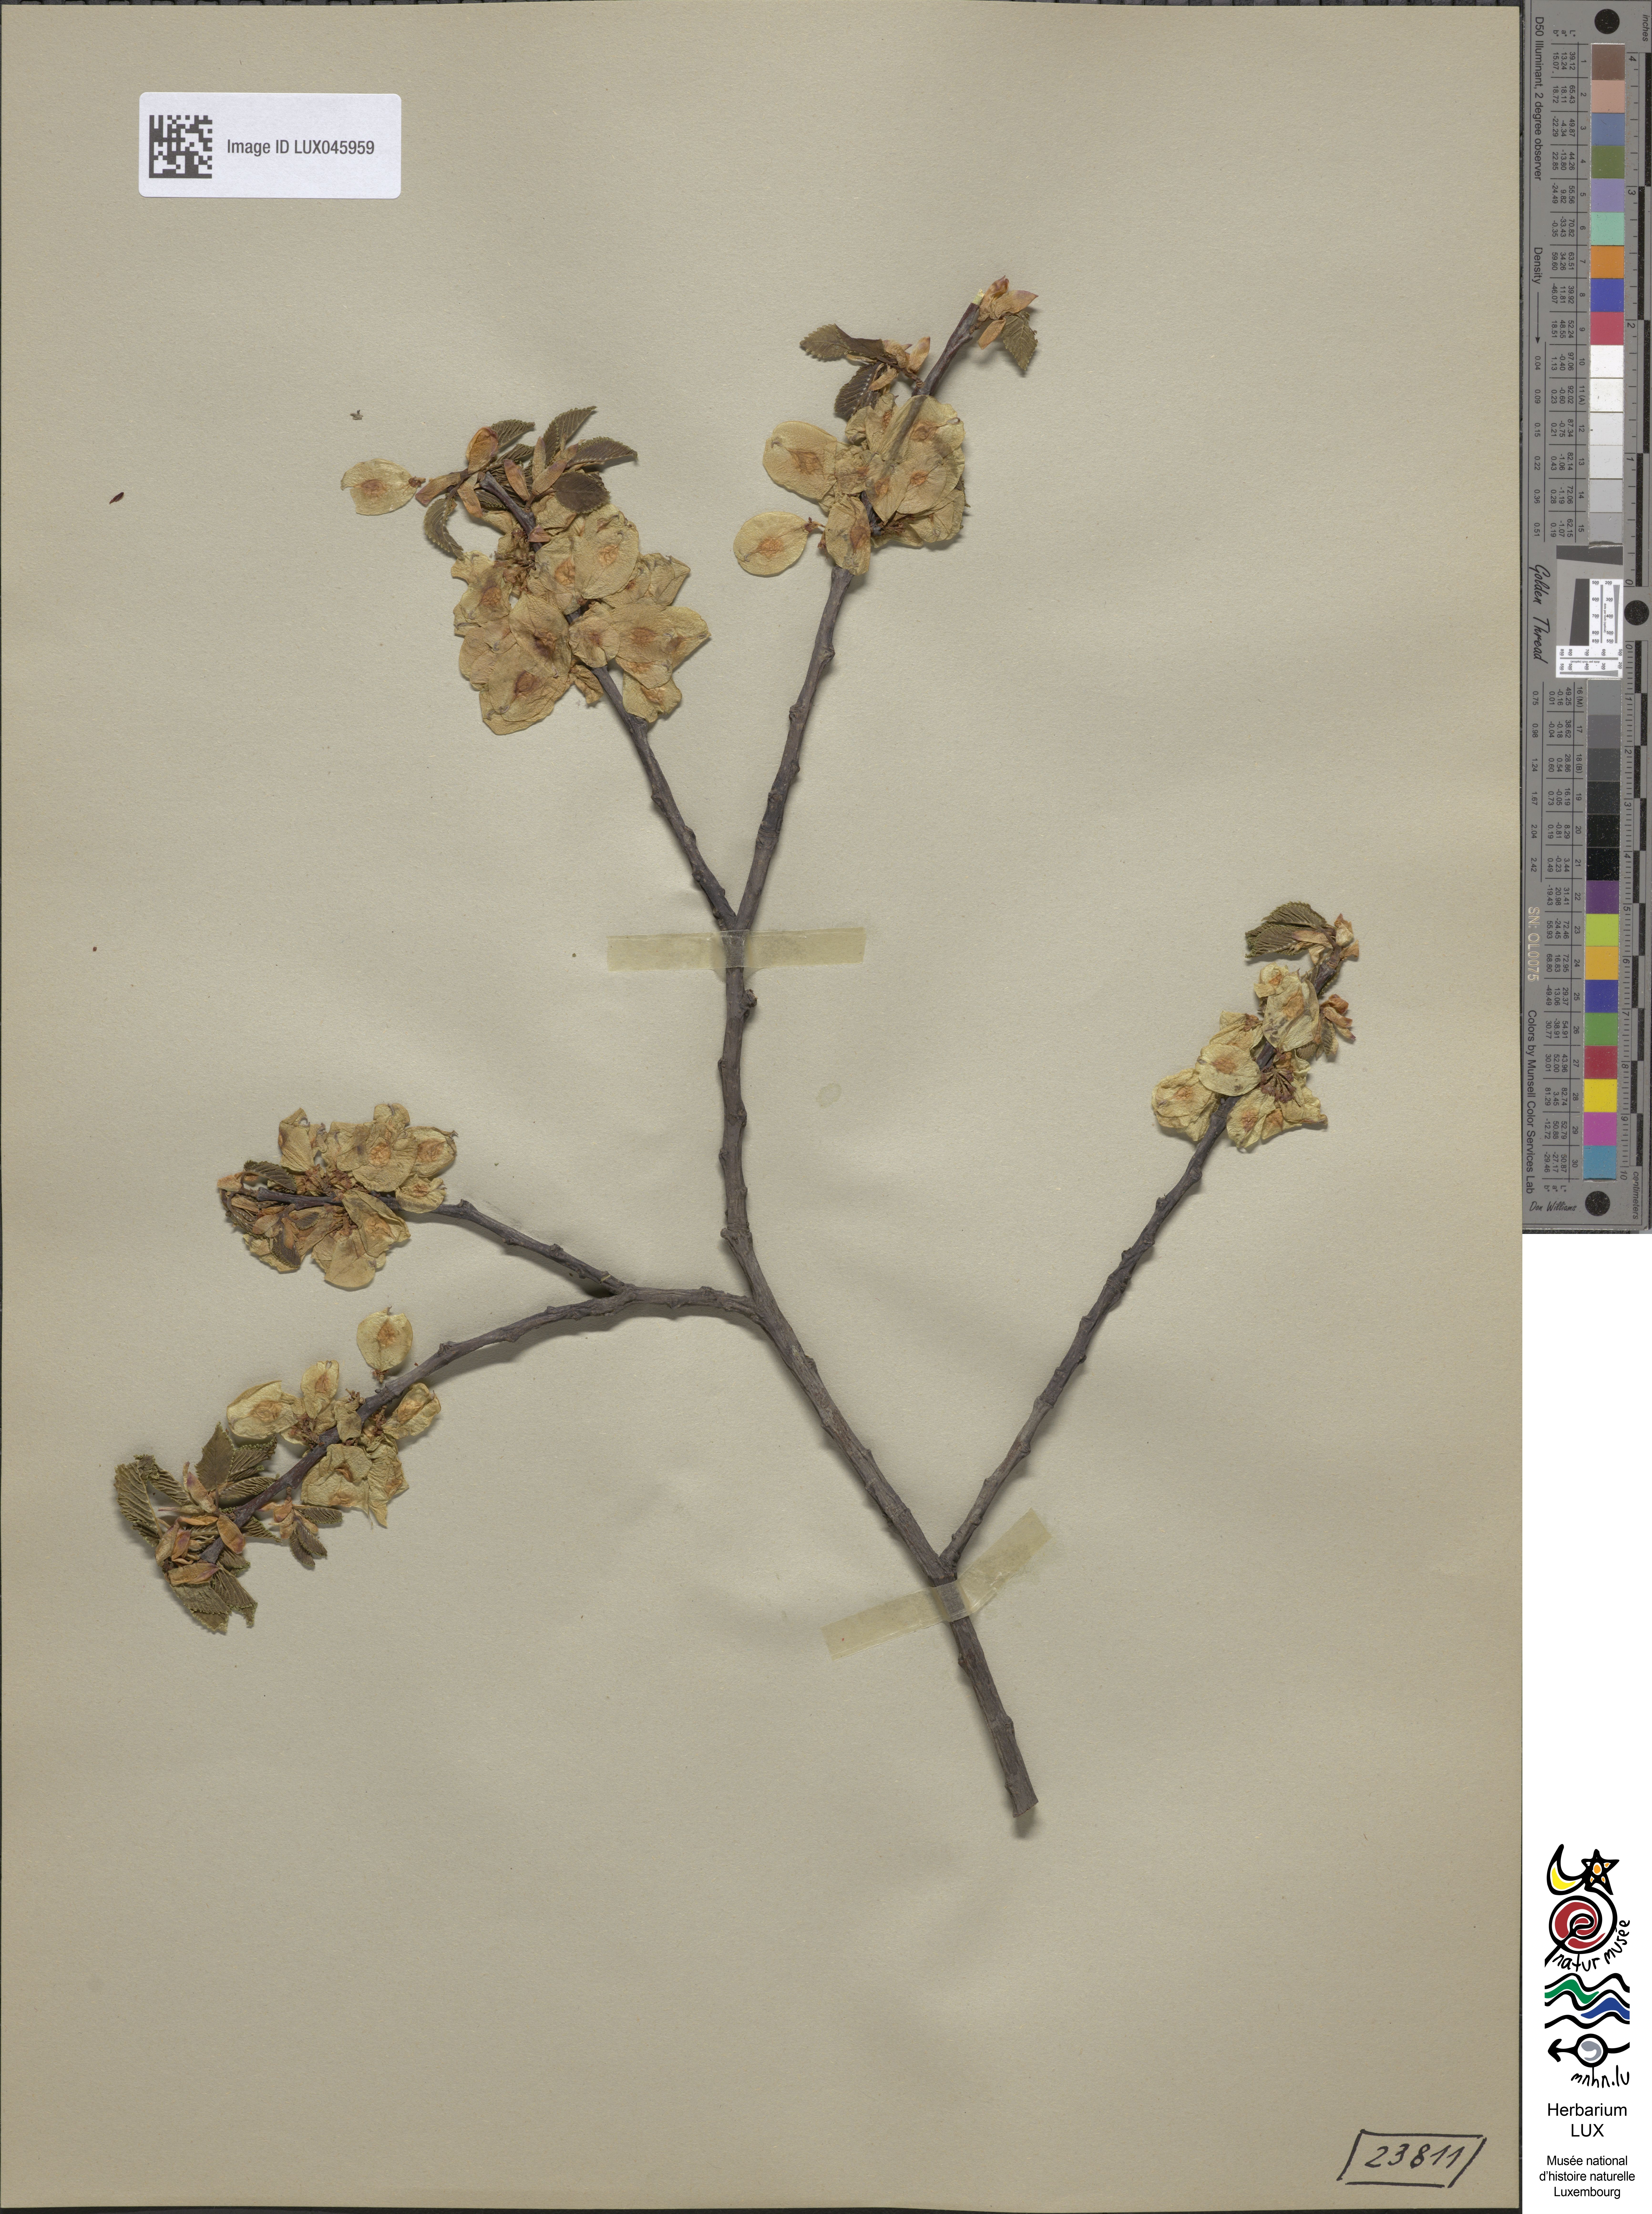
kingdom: Plantae
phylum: Tracheophyta
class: Magnoliopsida
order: Rosales
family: Ulmaceae
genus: Ulmus
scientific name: Ulmus hollandica
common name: Dutch elm
